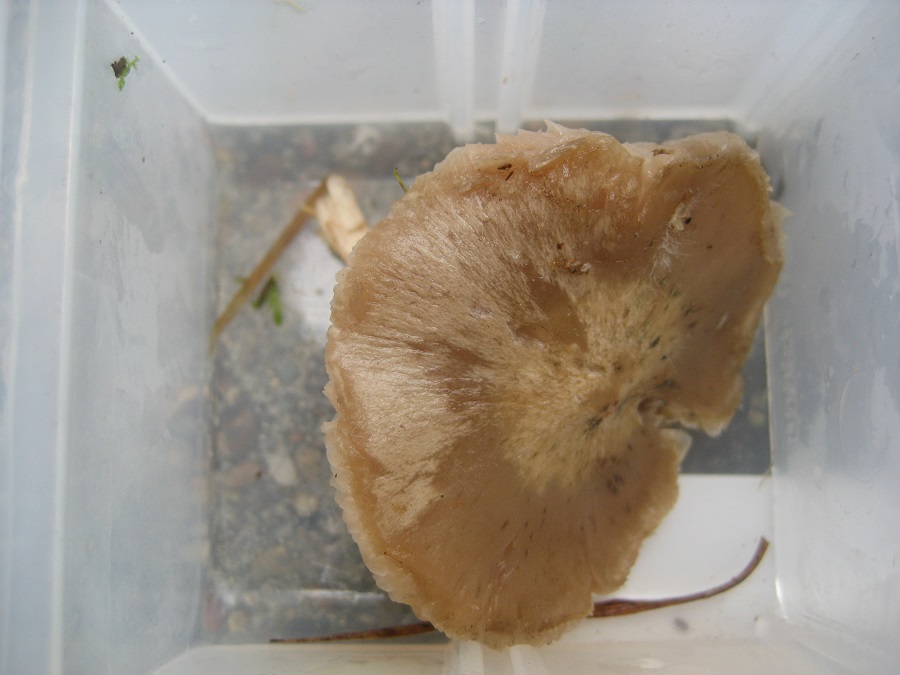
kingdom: Fungi
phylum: Basidiomycota
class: Agaricomycetes
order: Agaricales
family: Entolomataceae
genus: Entoloma
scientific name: Entoloma prunuloides
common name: mel-rødblad
